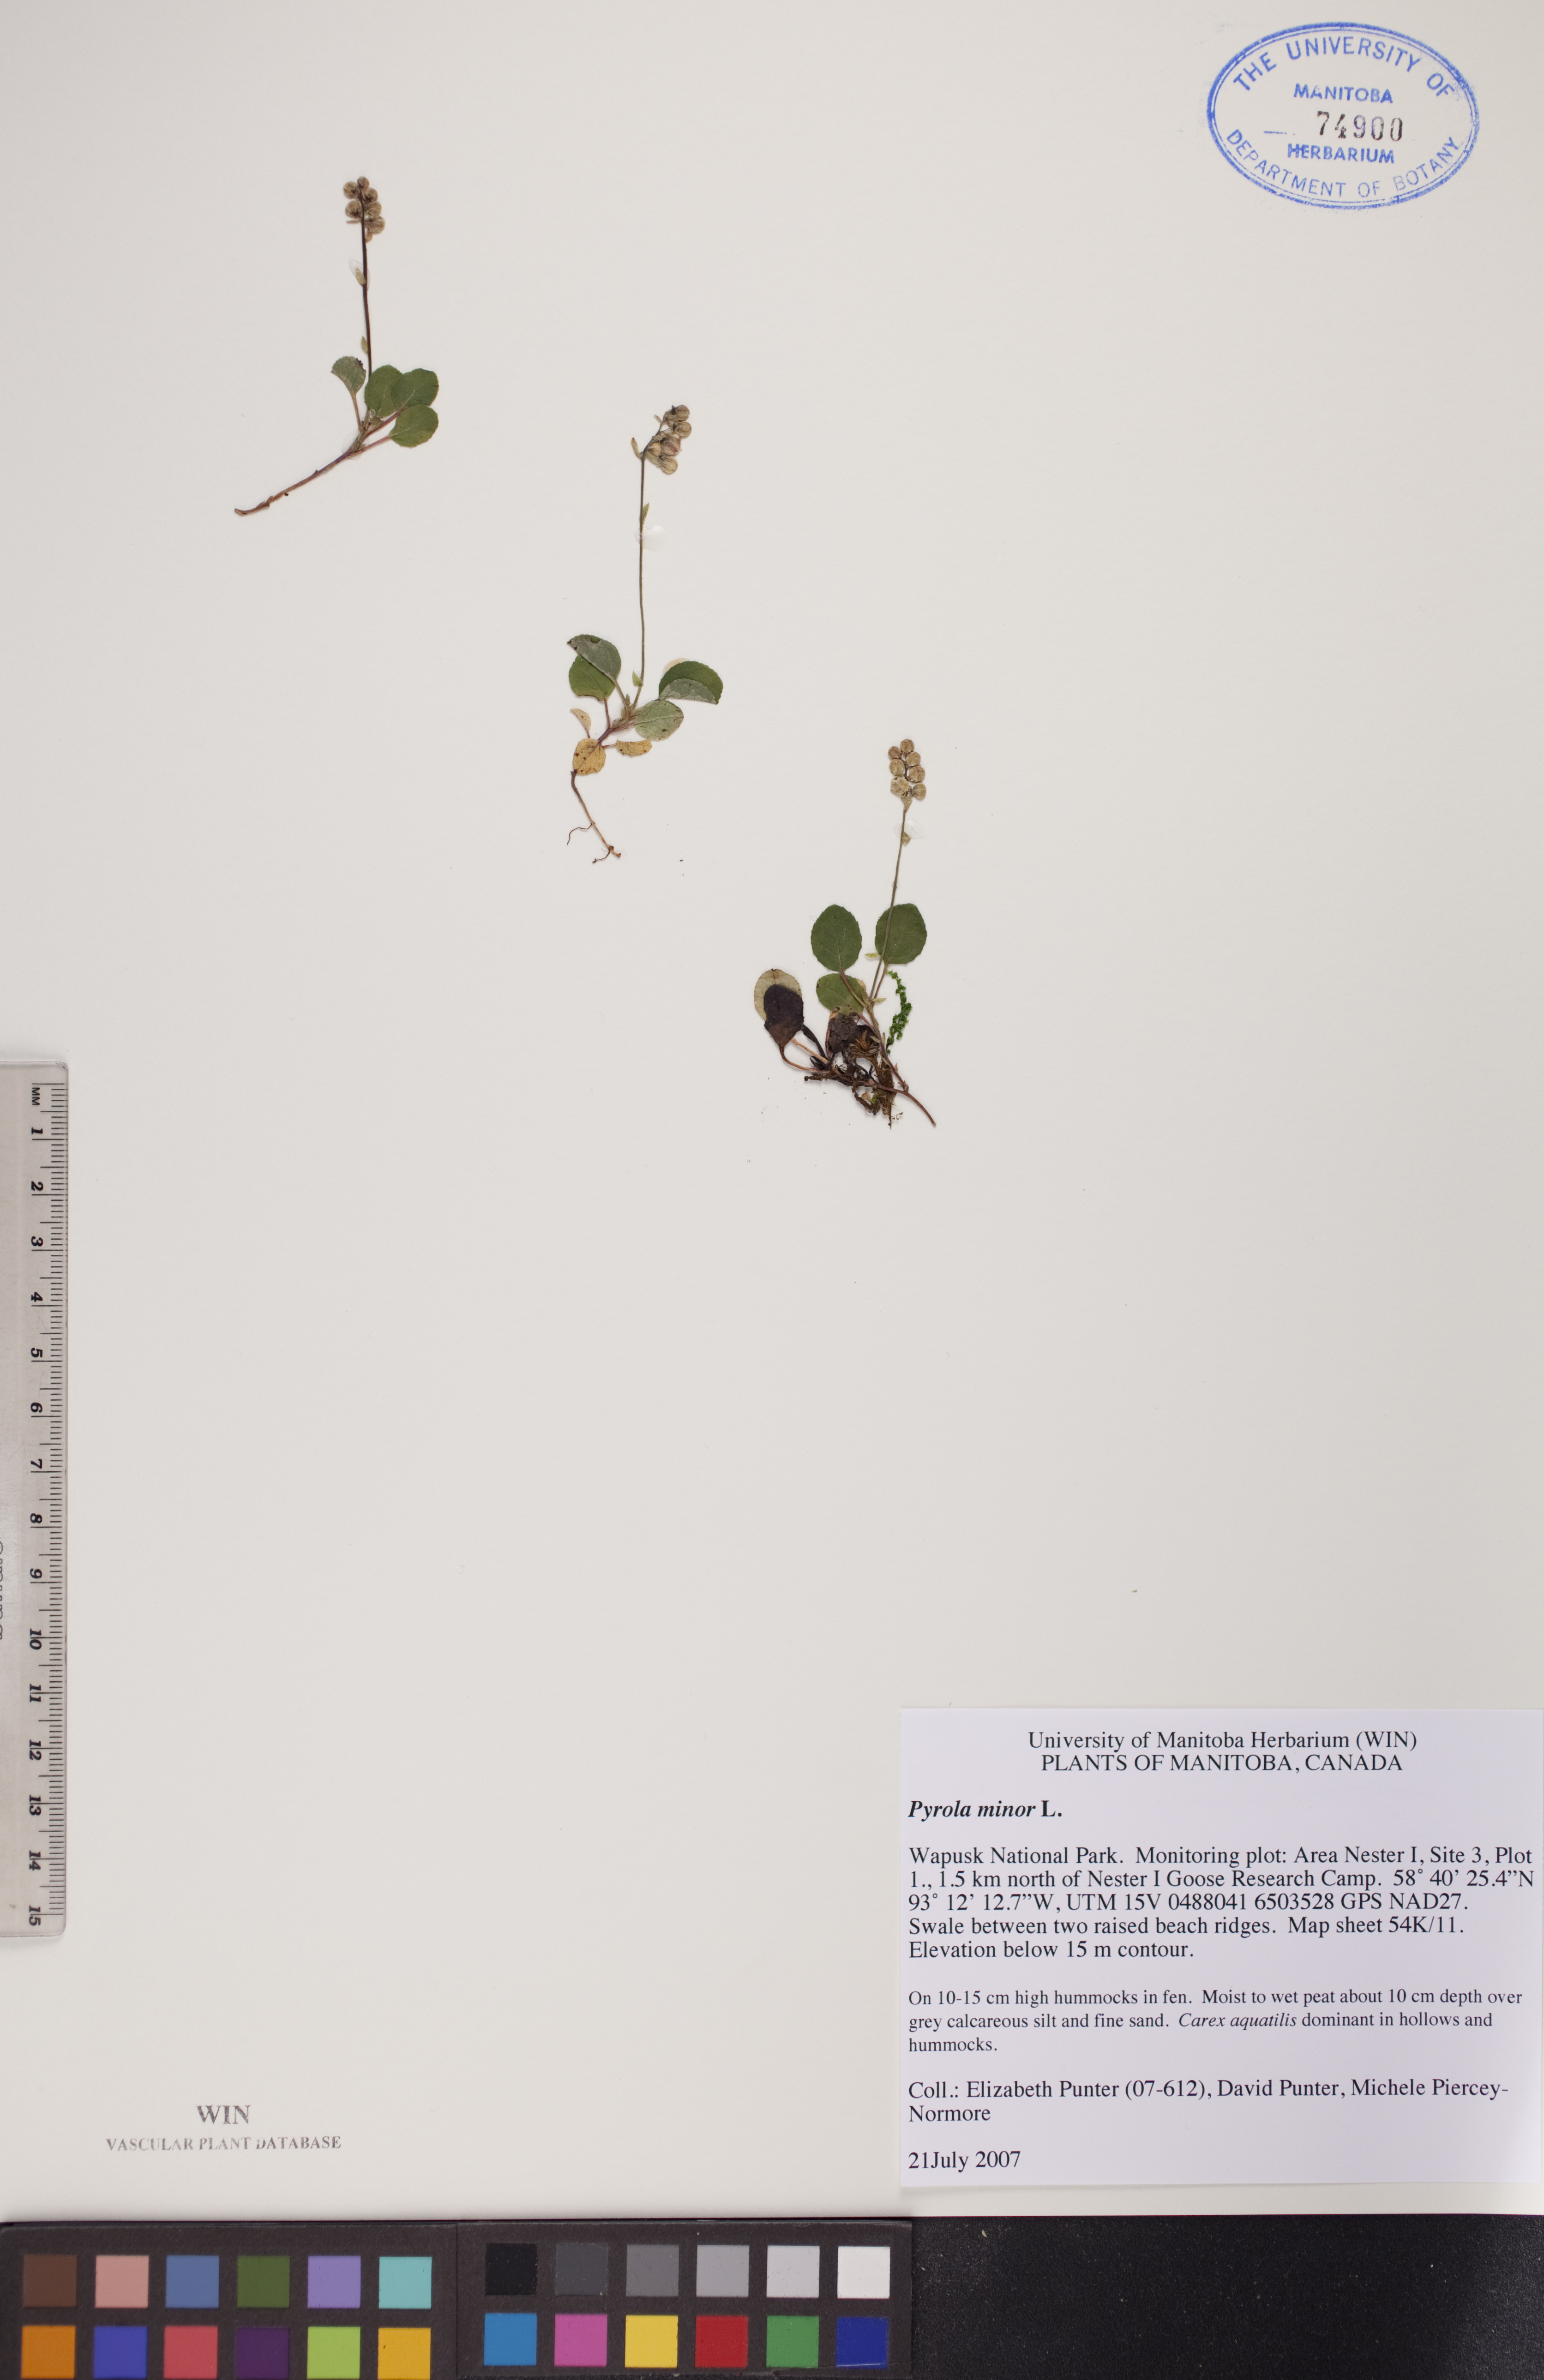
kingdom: Plantae
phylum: Tracheophyta
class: Magnoliopsida
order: Ericales
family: Ericaceae
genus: Pyrola
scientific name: Pyrola minor
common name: Common wintergreen
